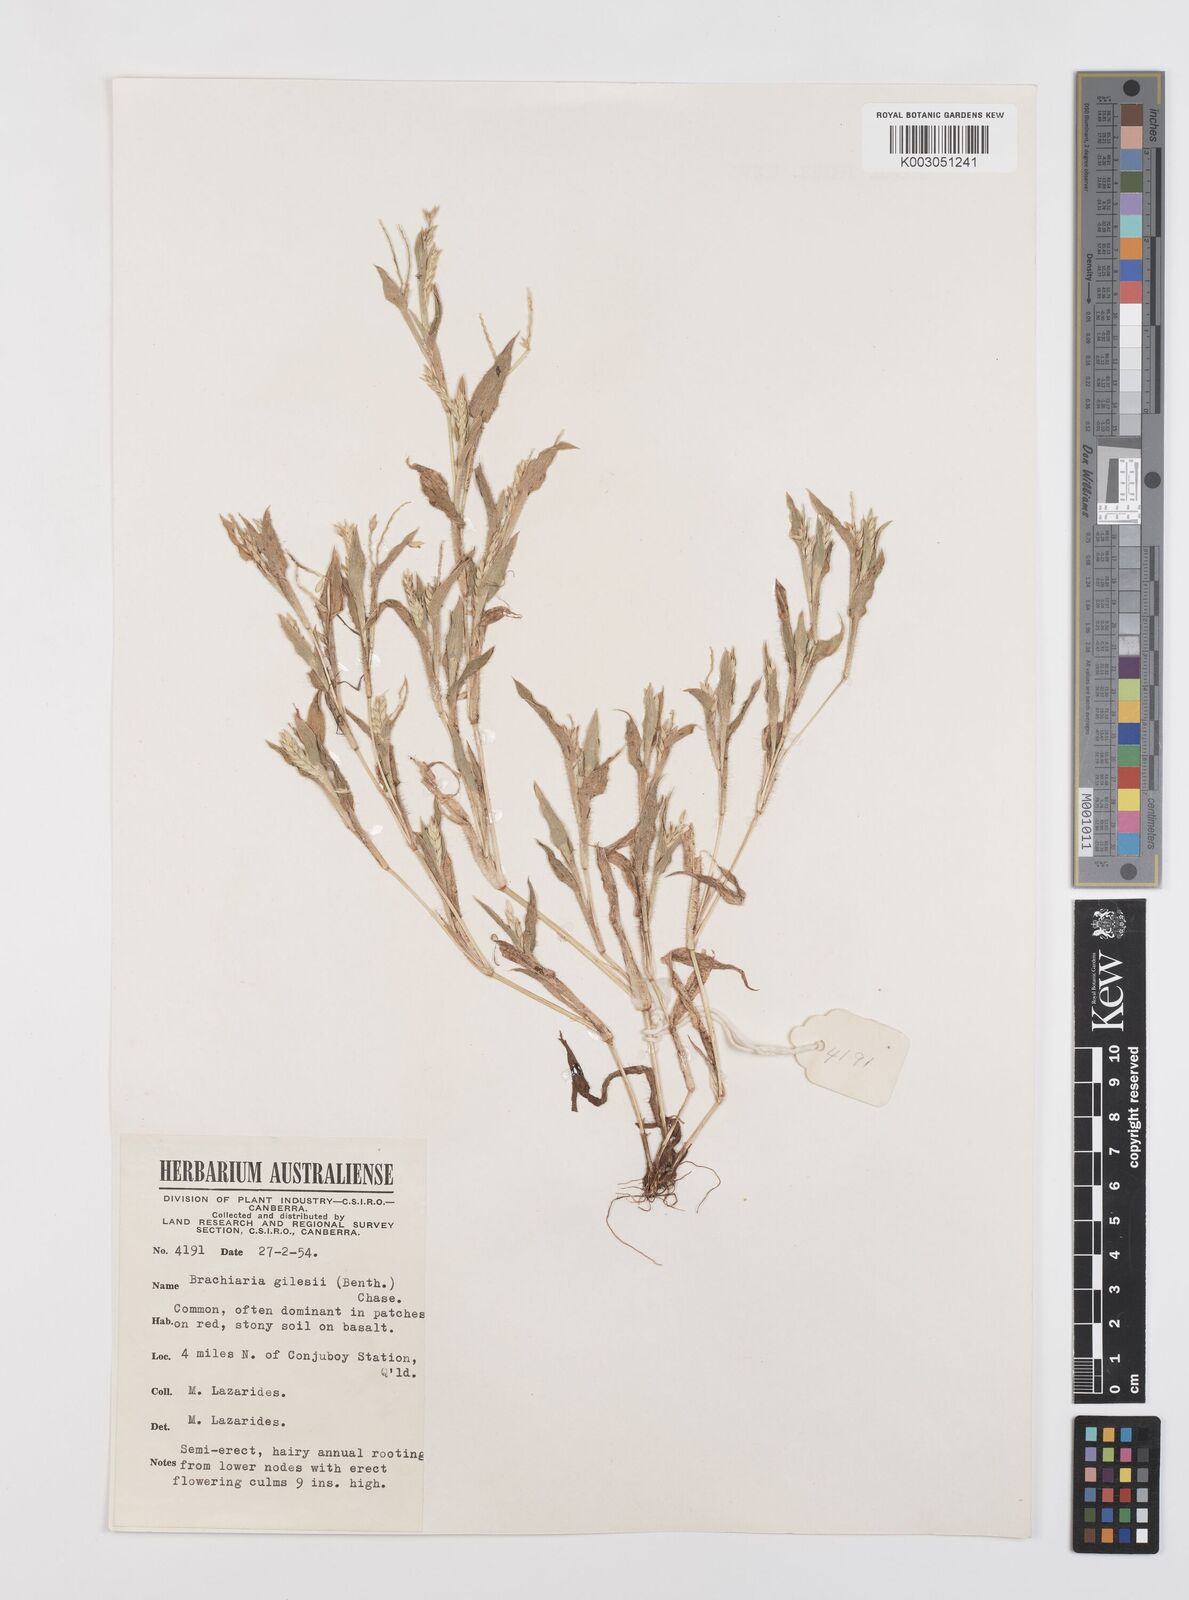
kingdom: Plantae
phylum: Tracheophyta
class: Liliopsida
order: Poales
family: Poaceae
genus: Urochloa
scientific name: Urochloa gilesii
